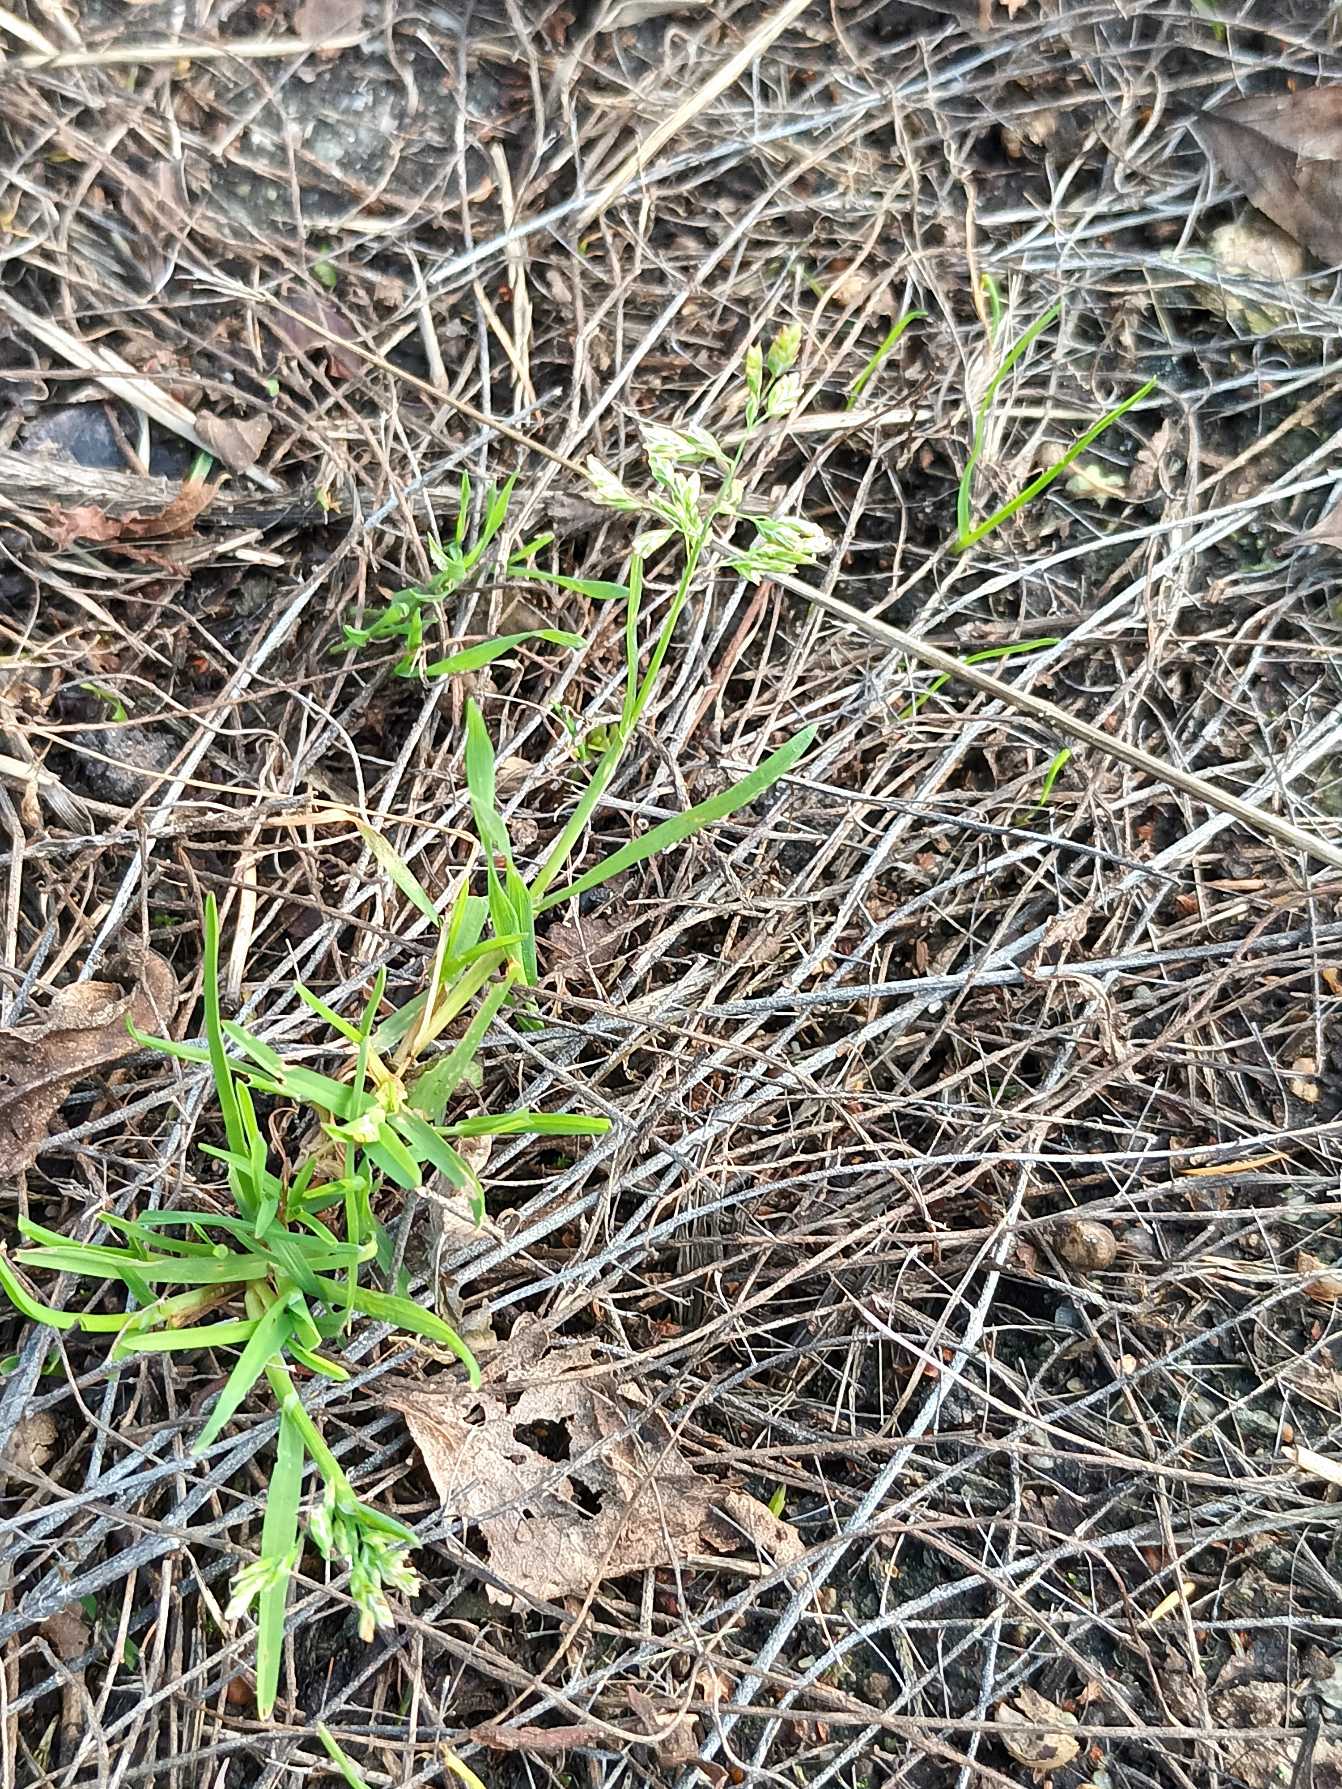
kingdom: Plantae
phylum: Tracheophyta
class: Liliopsida
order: Poales
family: Poaceae
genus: Poa
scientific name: Poa annua
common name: Enårig rapgræs
